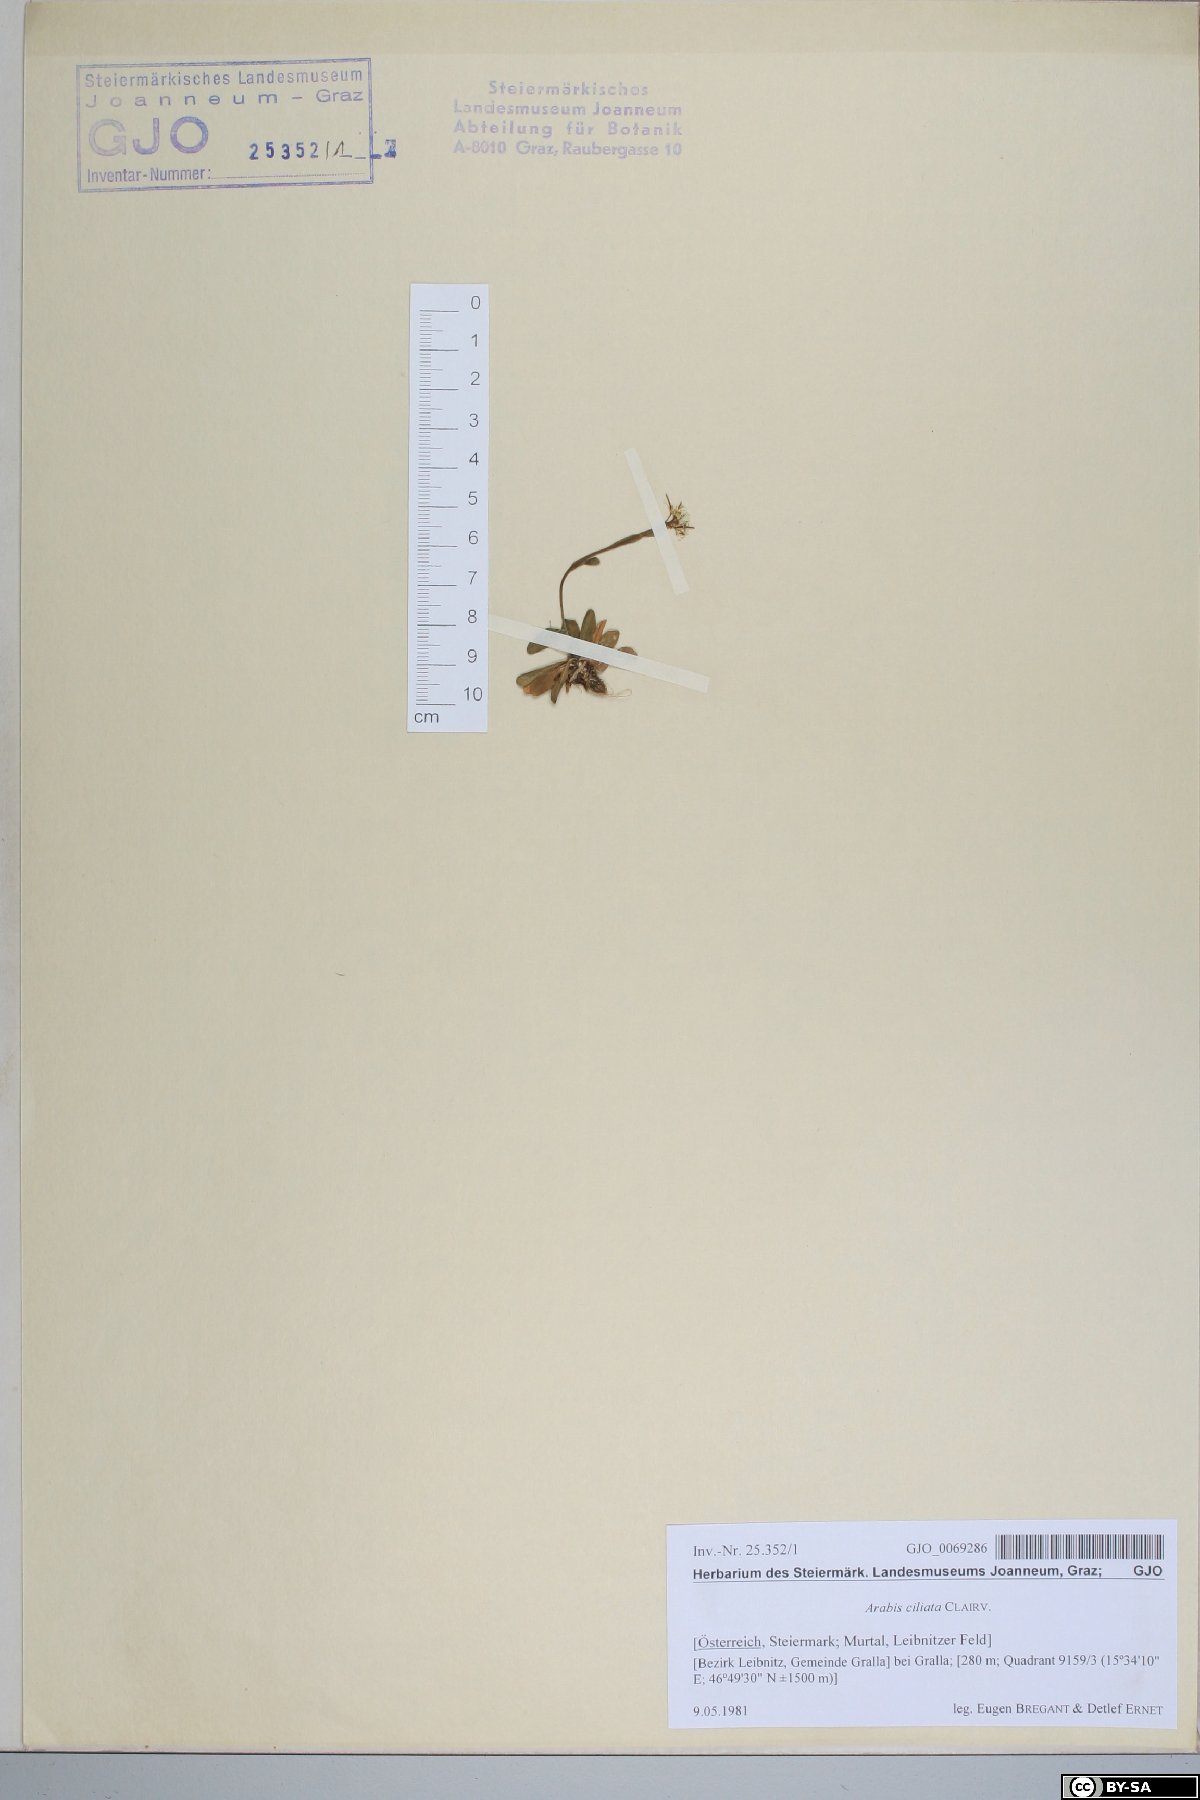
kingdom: Plantae
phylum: Tracheophyta
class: Magnoliopsida
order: Brassicales
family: Brassicaceae
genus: Arabis
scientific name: Arabis
